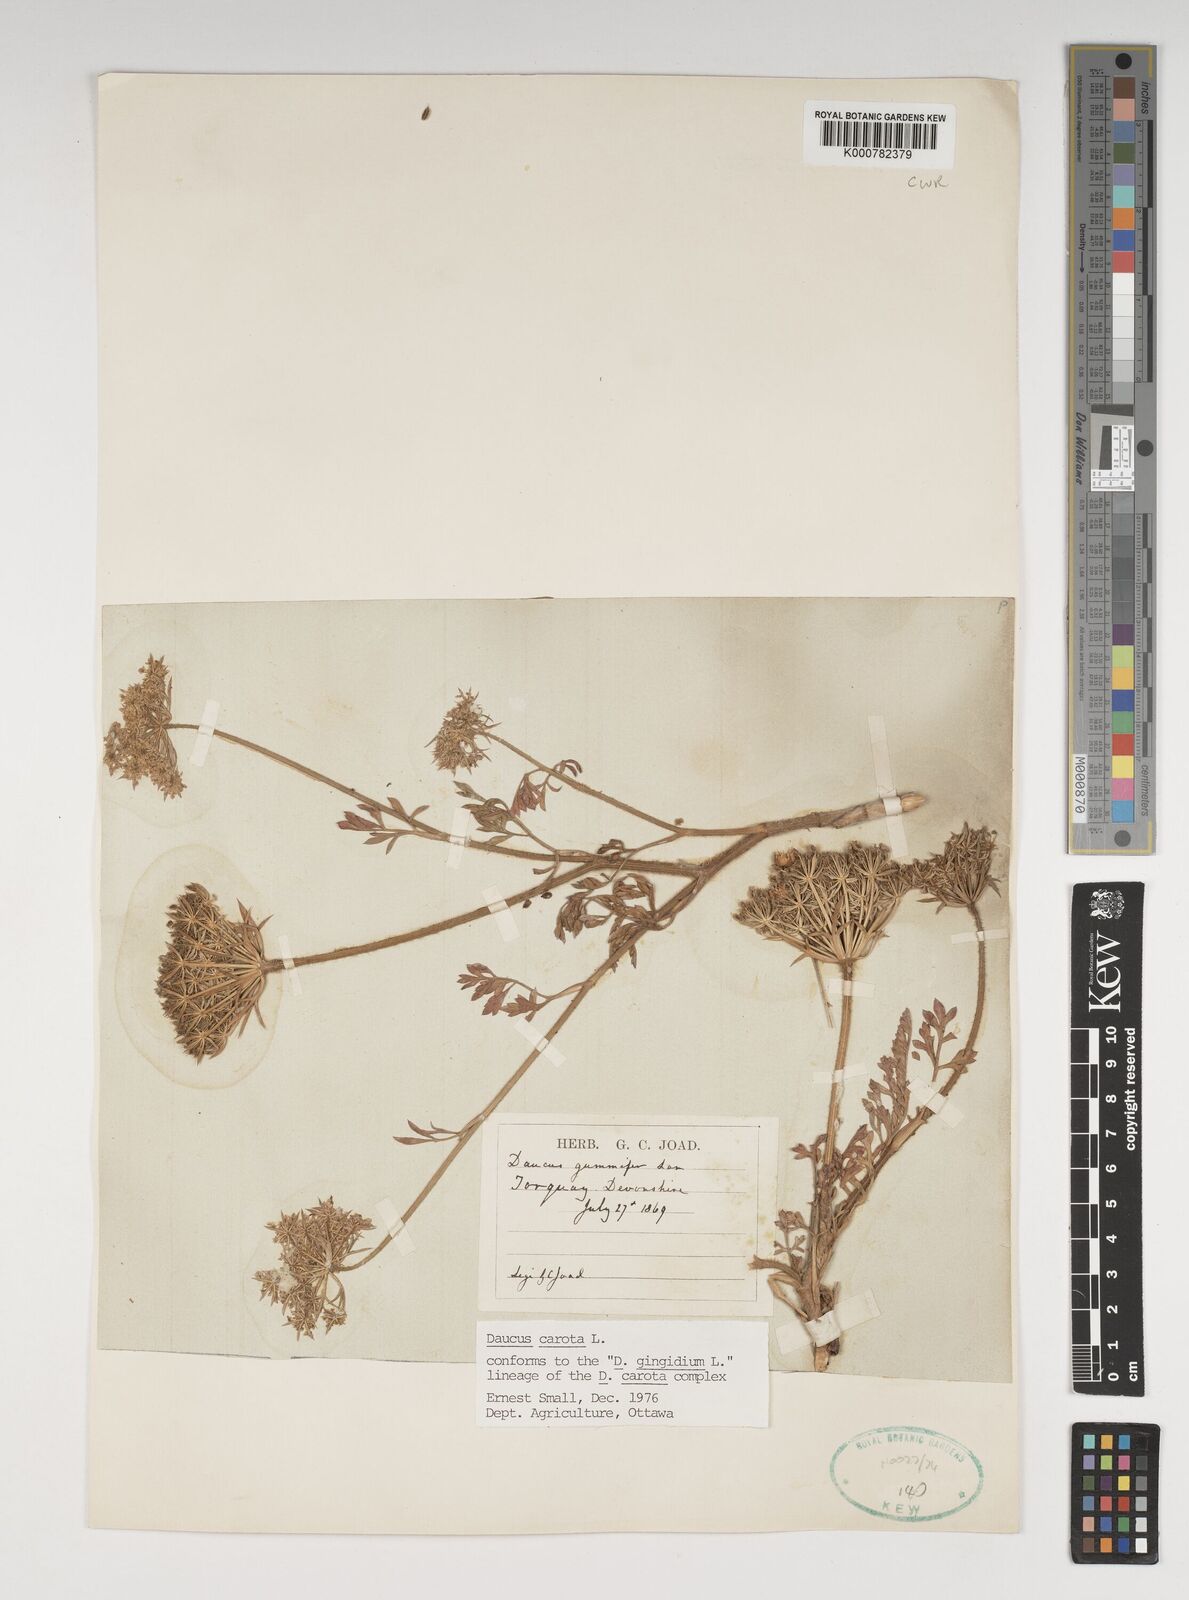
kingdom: Plantae
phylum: Tracheophyta
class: Magnoliopsida
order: Apiales
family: Apiaceae
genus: Daucus
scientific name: Daucus carota
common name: Wild carrot
